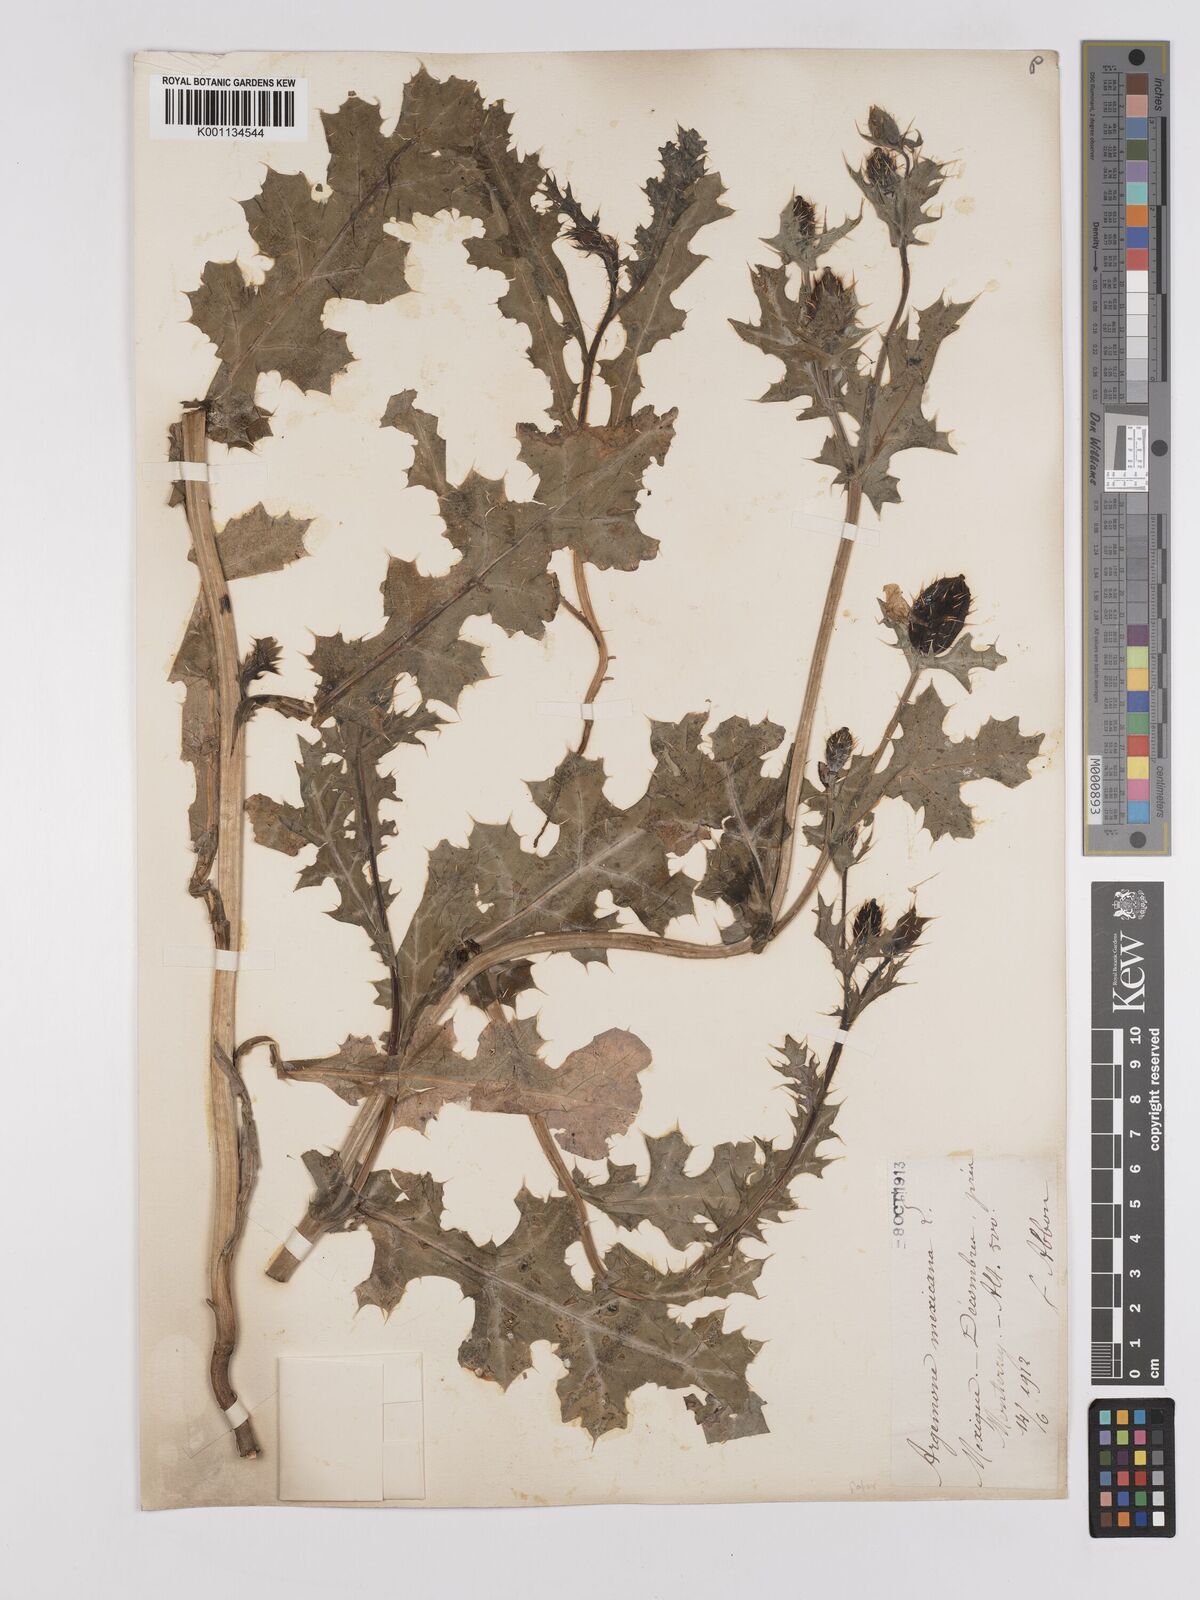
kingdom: Plantae
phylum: Tracheophyta
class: Magnoliopsida
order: Ranunculales
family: Papaveraceae
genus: Argemone
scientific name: Argemone mexicana
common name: Mexican poppy
